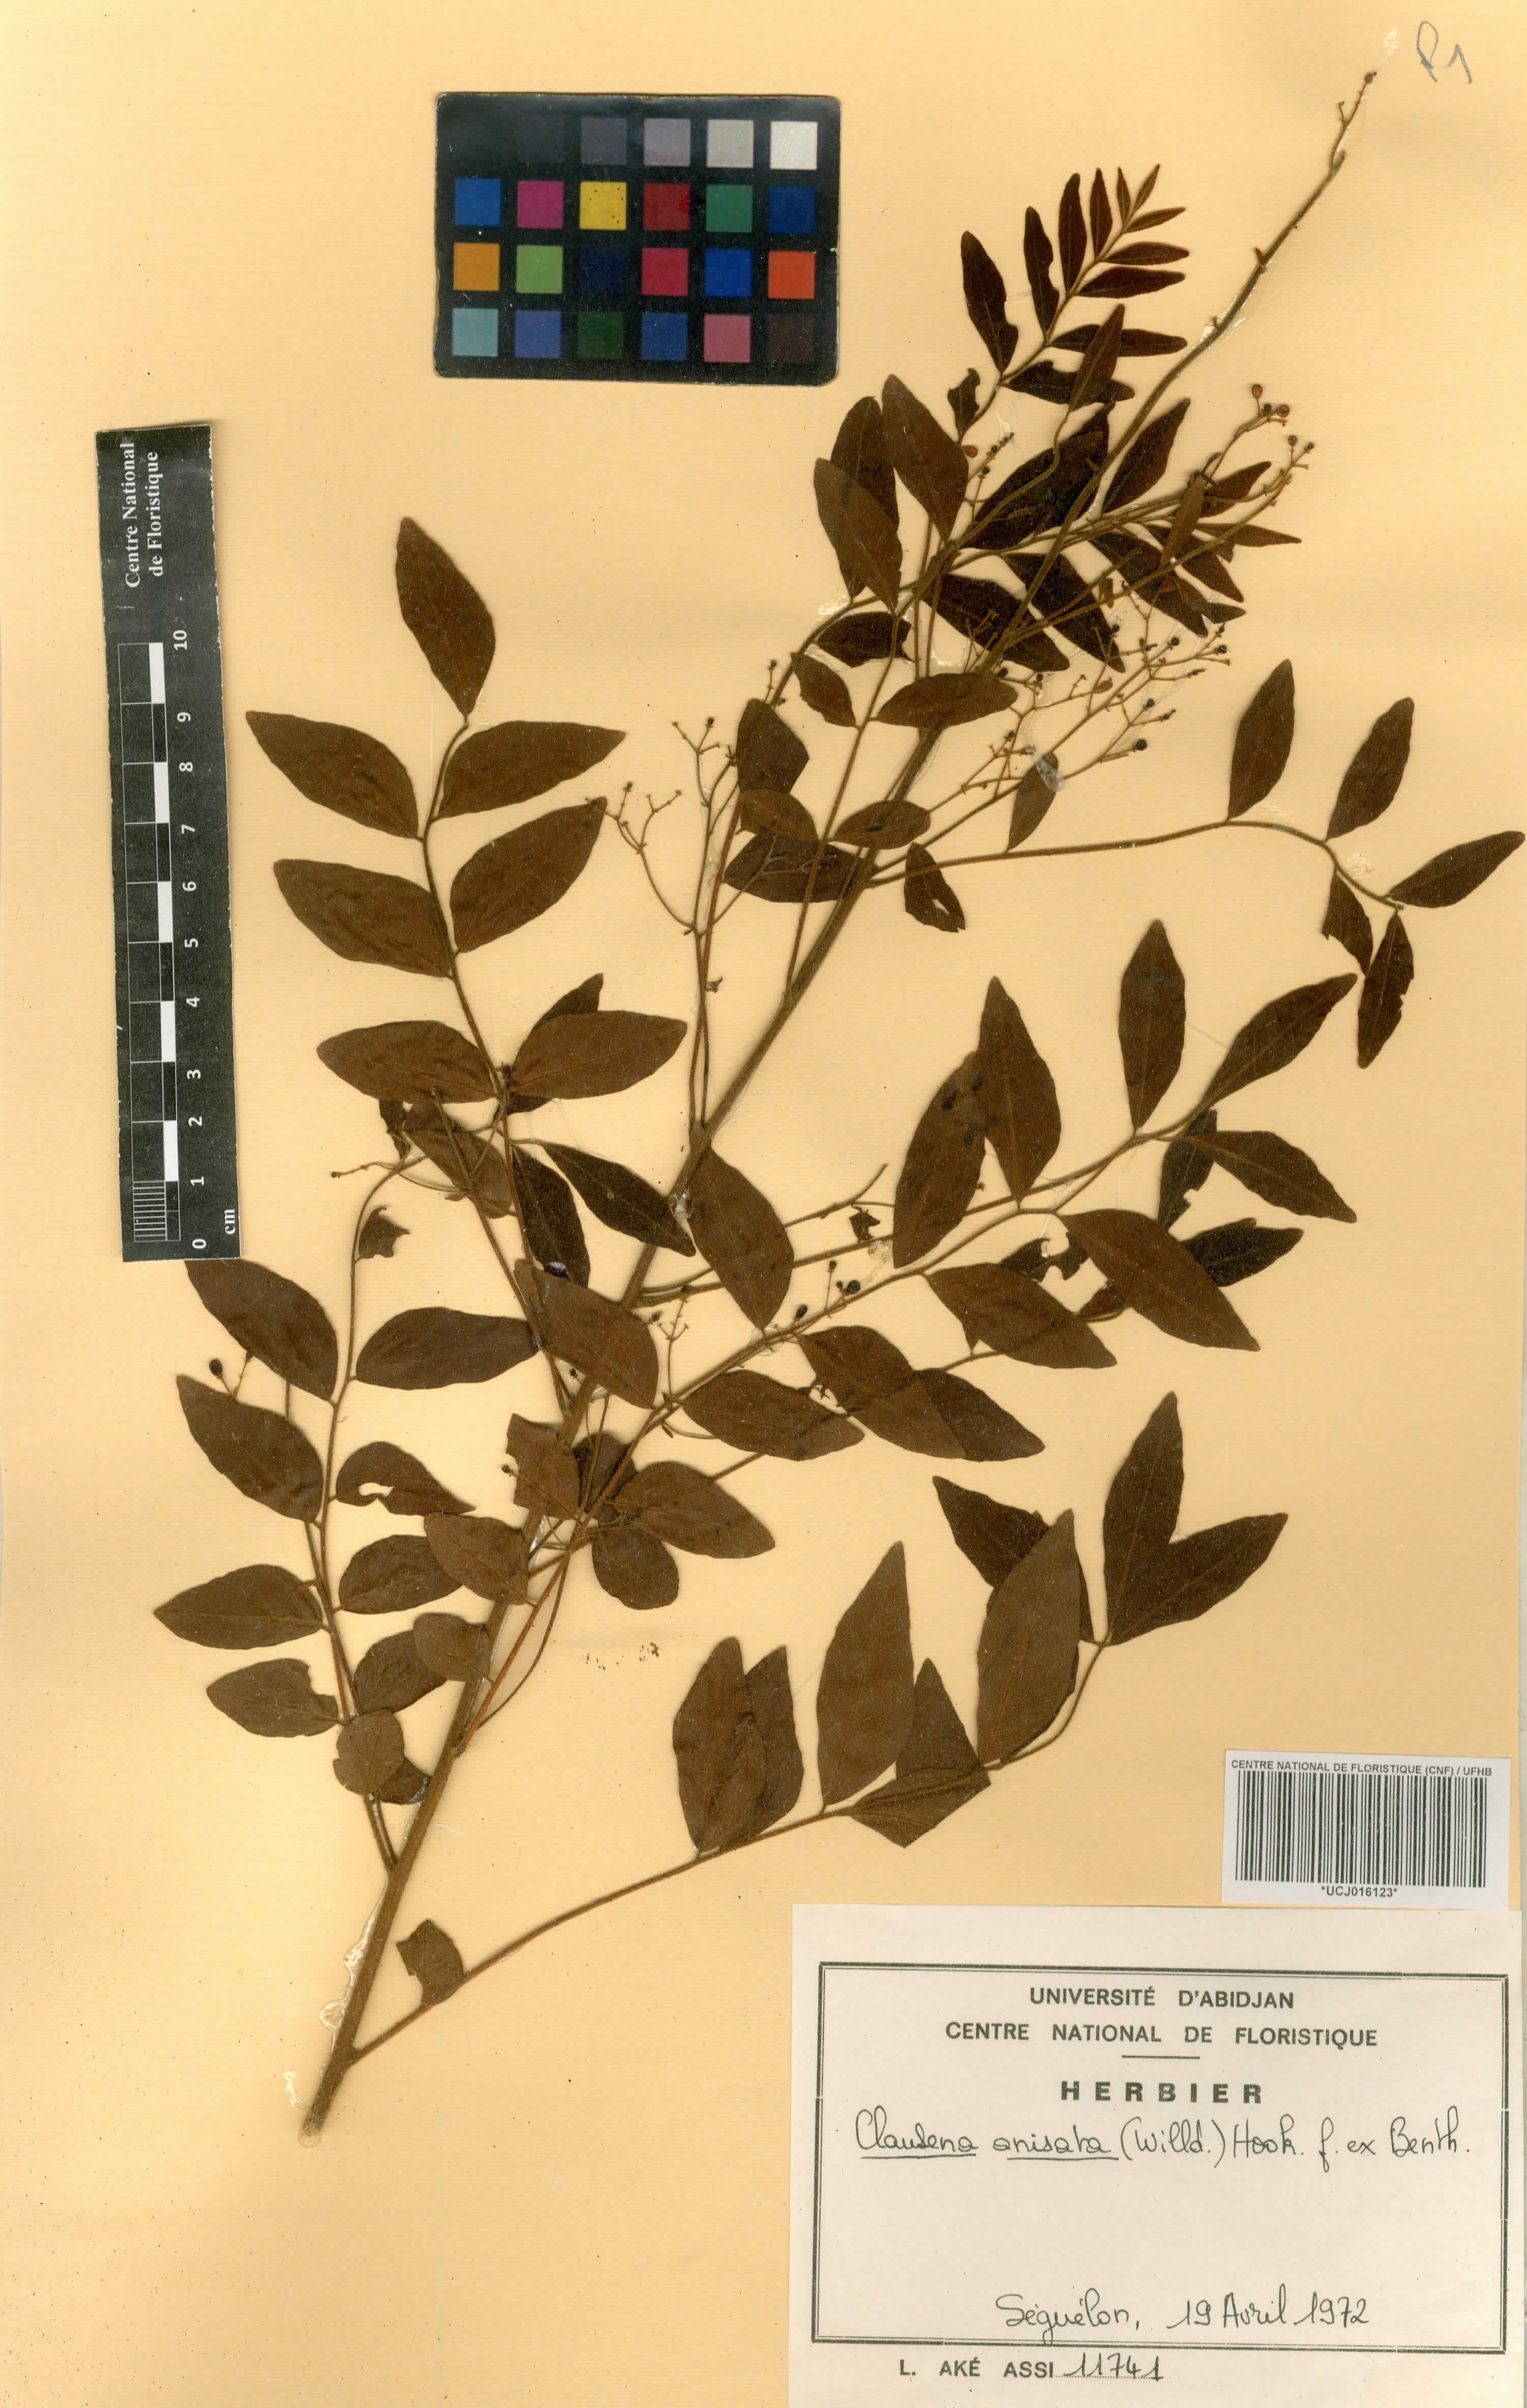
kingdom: Plantae
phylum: Tracheophyta
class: Magnoliopsida
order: Sapindales
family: Rutaceae
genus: Clausena
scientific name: Clausena anisata
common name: Horsewood
